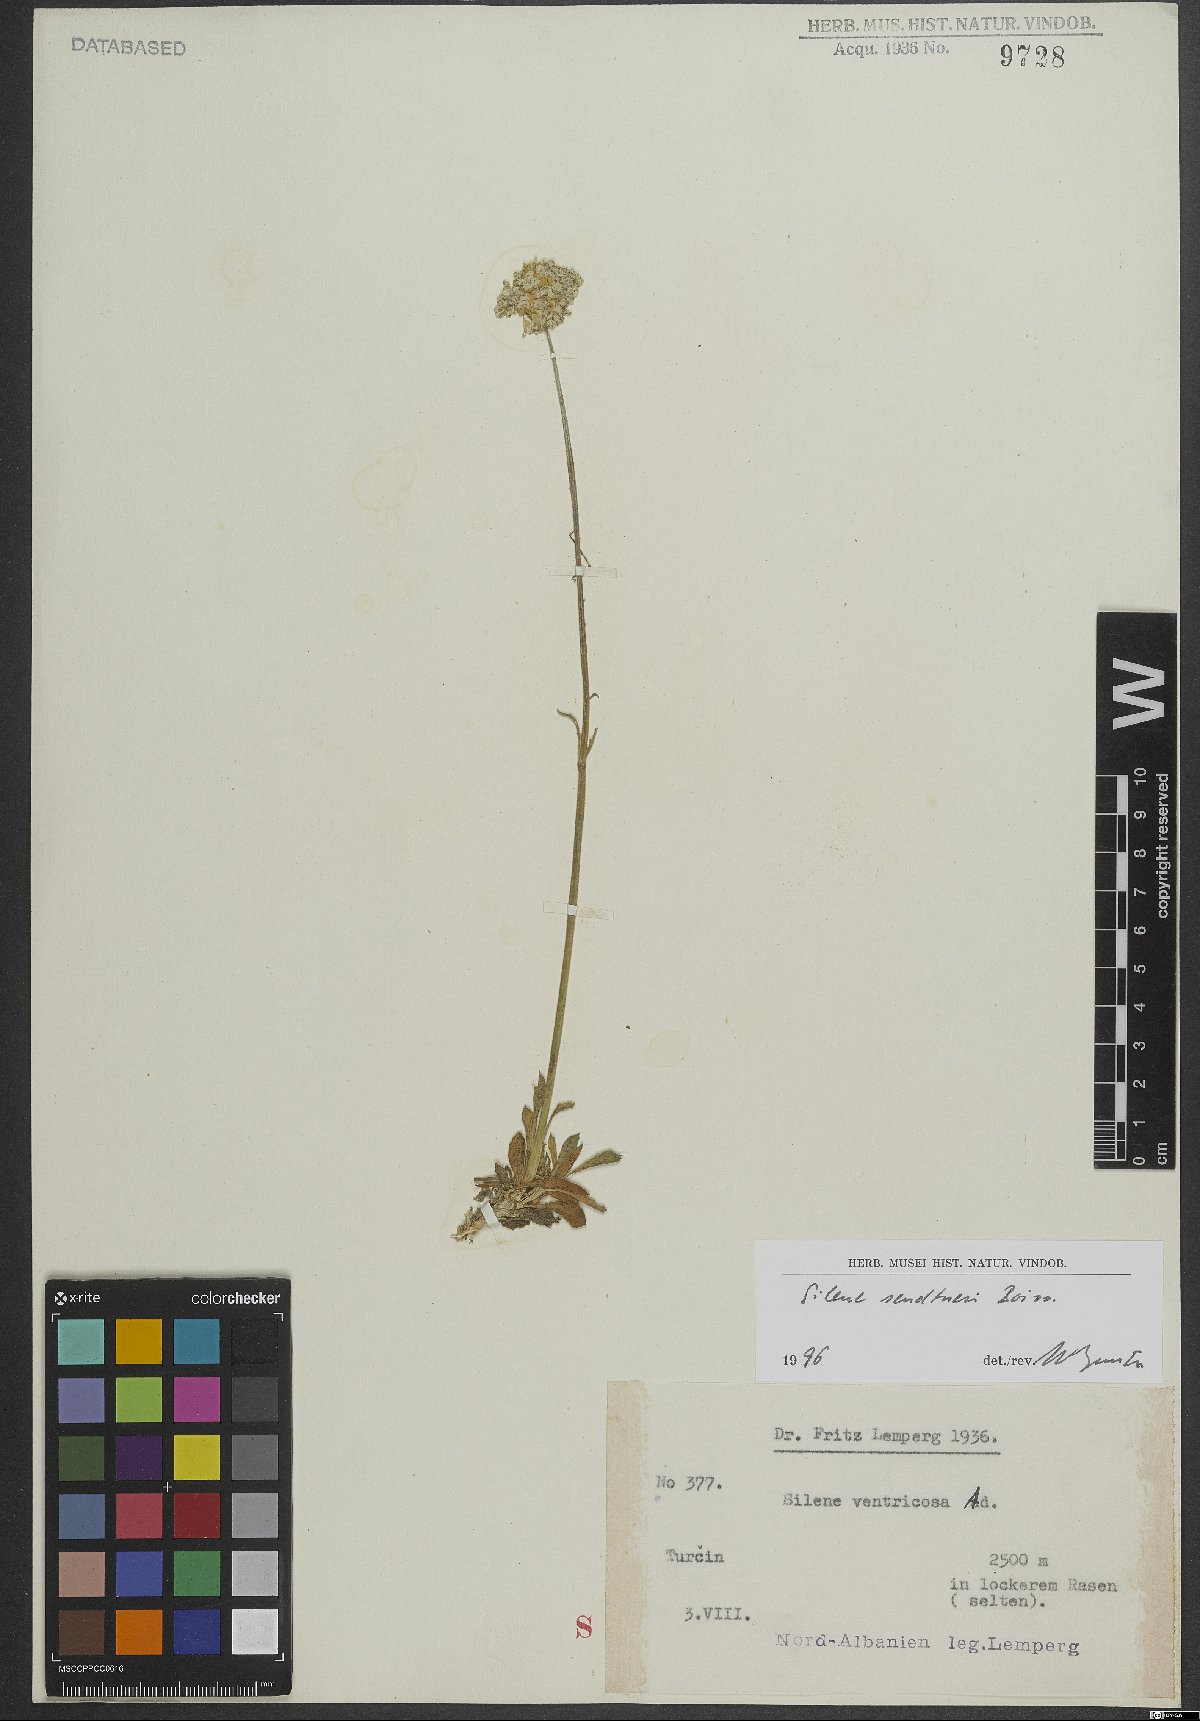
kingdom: Plantae
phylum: Tracheophyta
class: Magnoliopsida
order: Caryophyllales
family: Caryophyllaceae
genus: Silene
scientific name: Silene sendtneri
